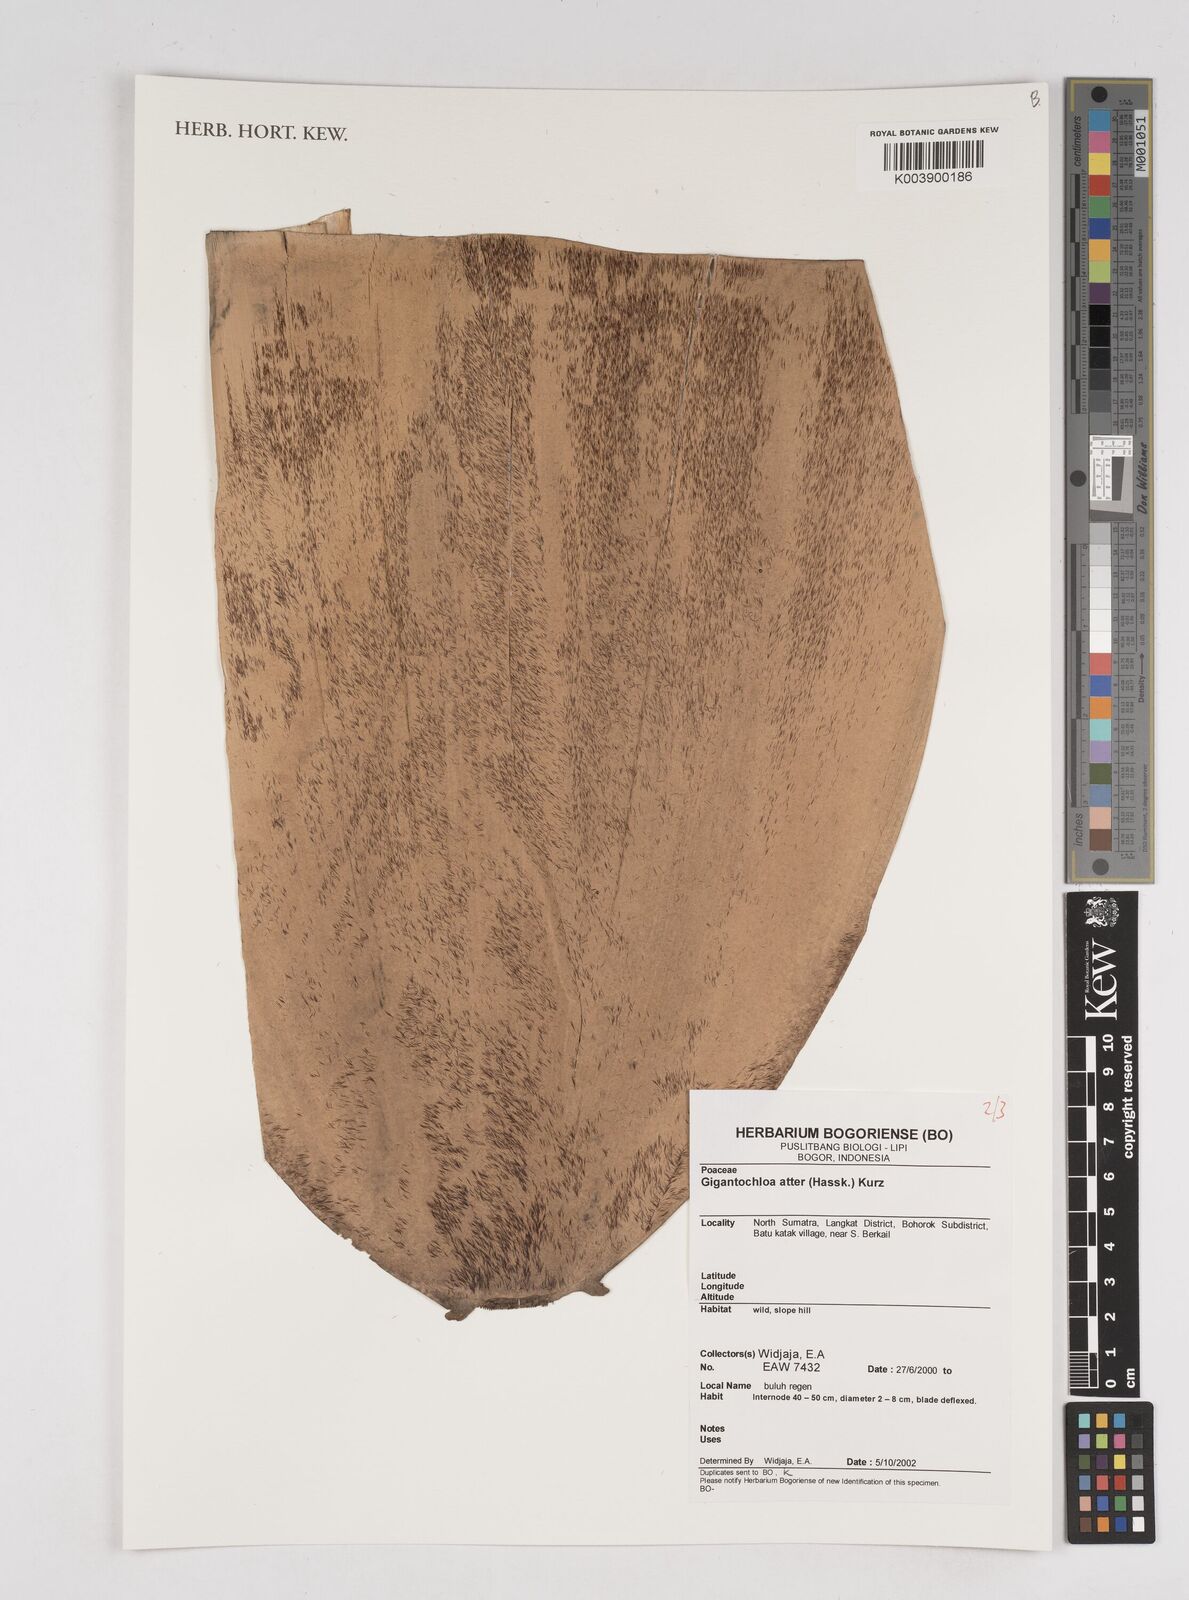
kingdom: Plantae
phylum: Tracheophyta
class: Liliopsida
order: Poales
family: Poaceae
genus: Gigantochloa
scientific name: Gigantochloa atter
